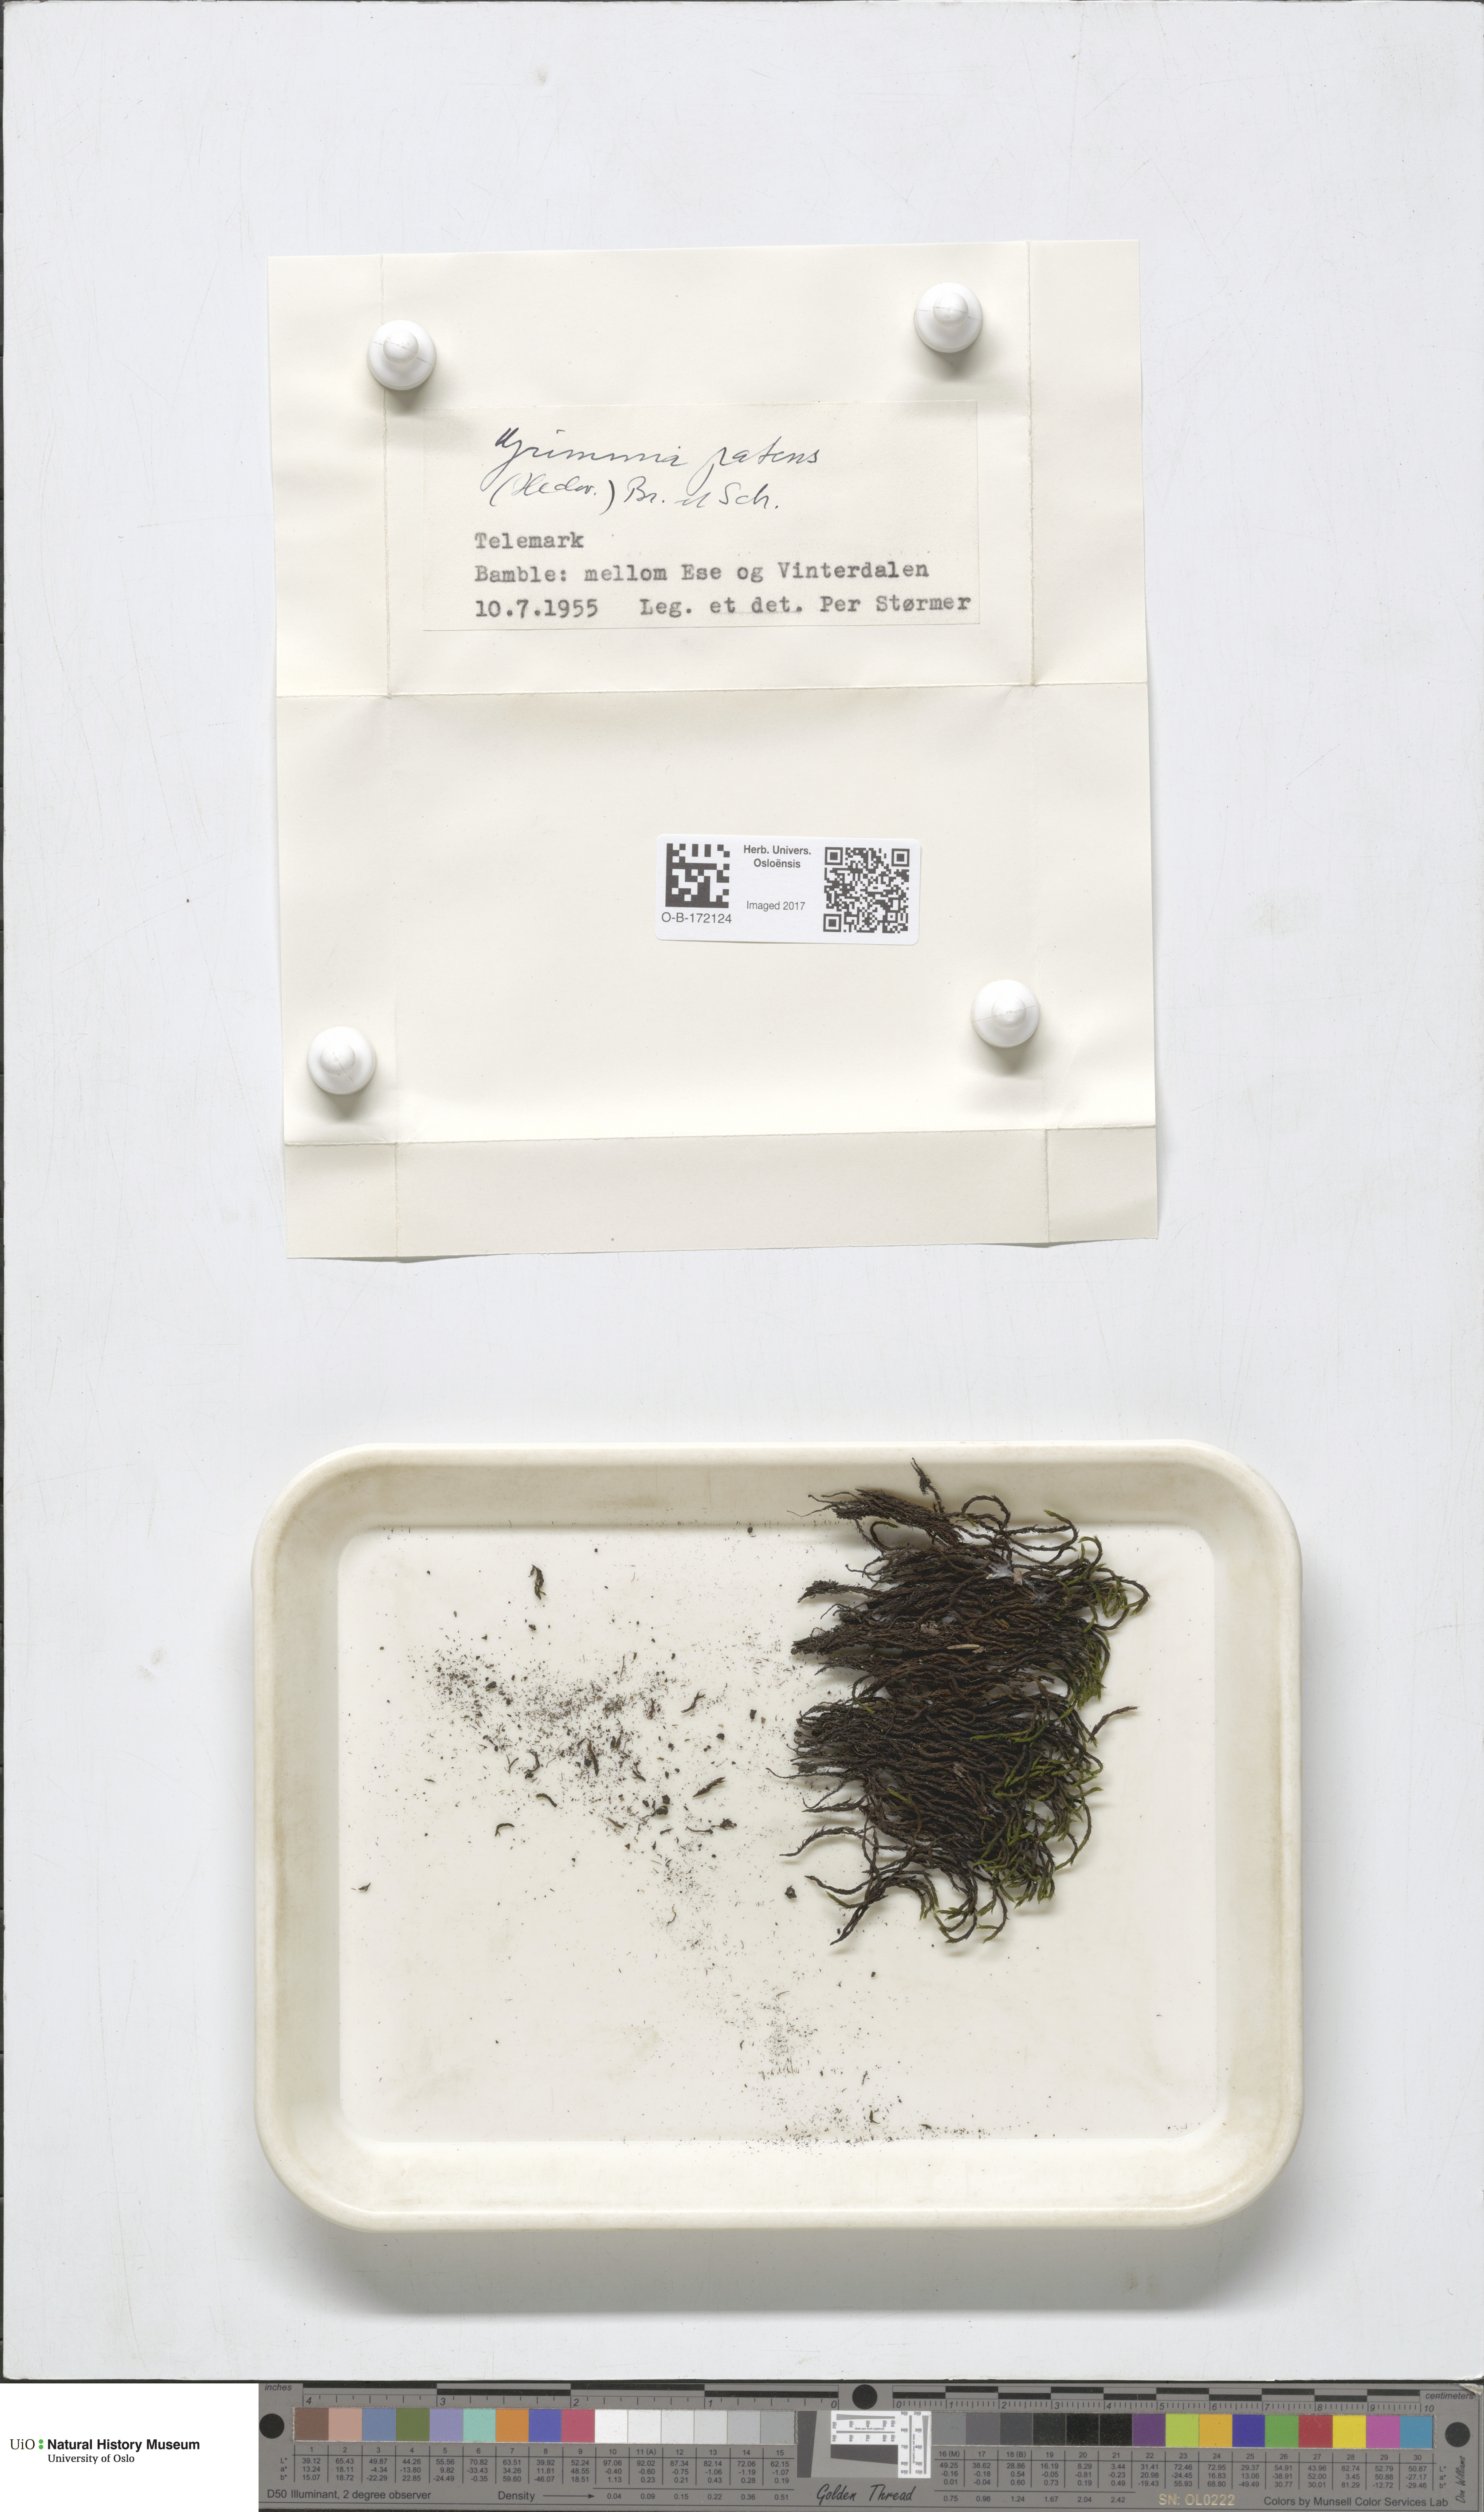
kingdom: Plantae
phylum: Bryophyta
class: Bryopsida
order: Grimmiales
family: Grimmiaceae
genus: Grimmia
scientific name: Grimmia ramondii
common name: Spreading-leaved grimmia
